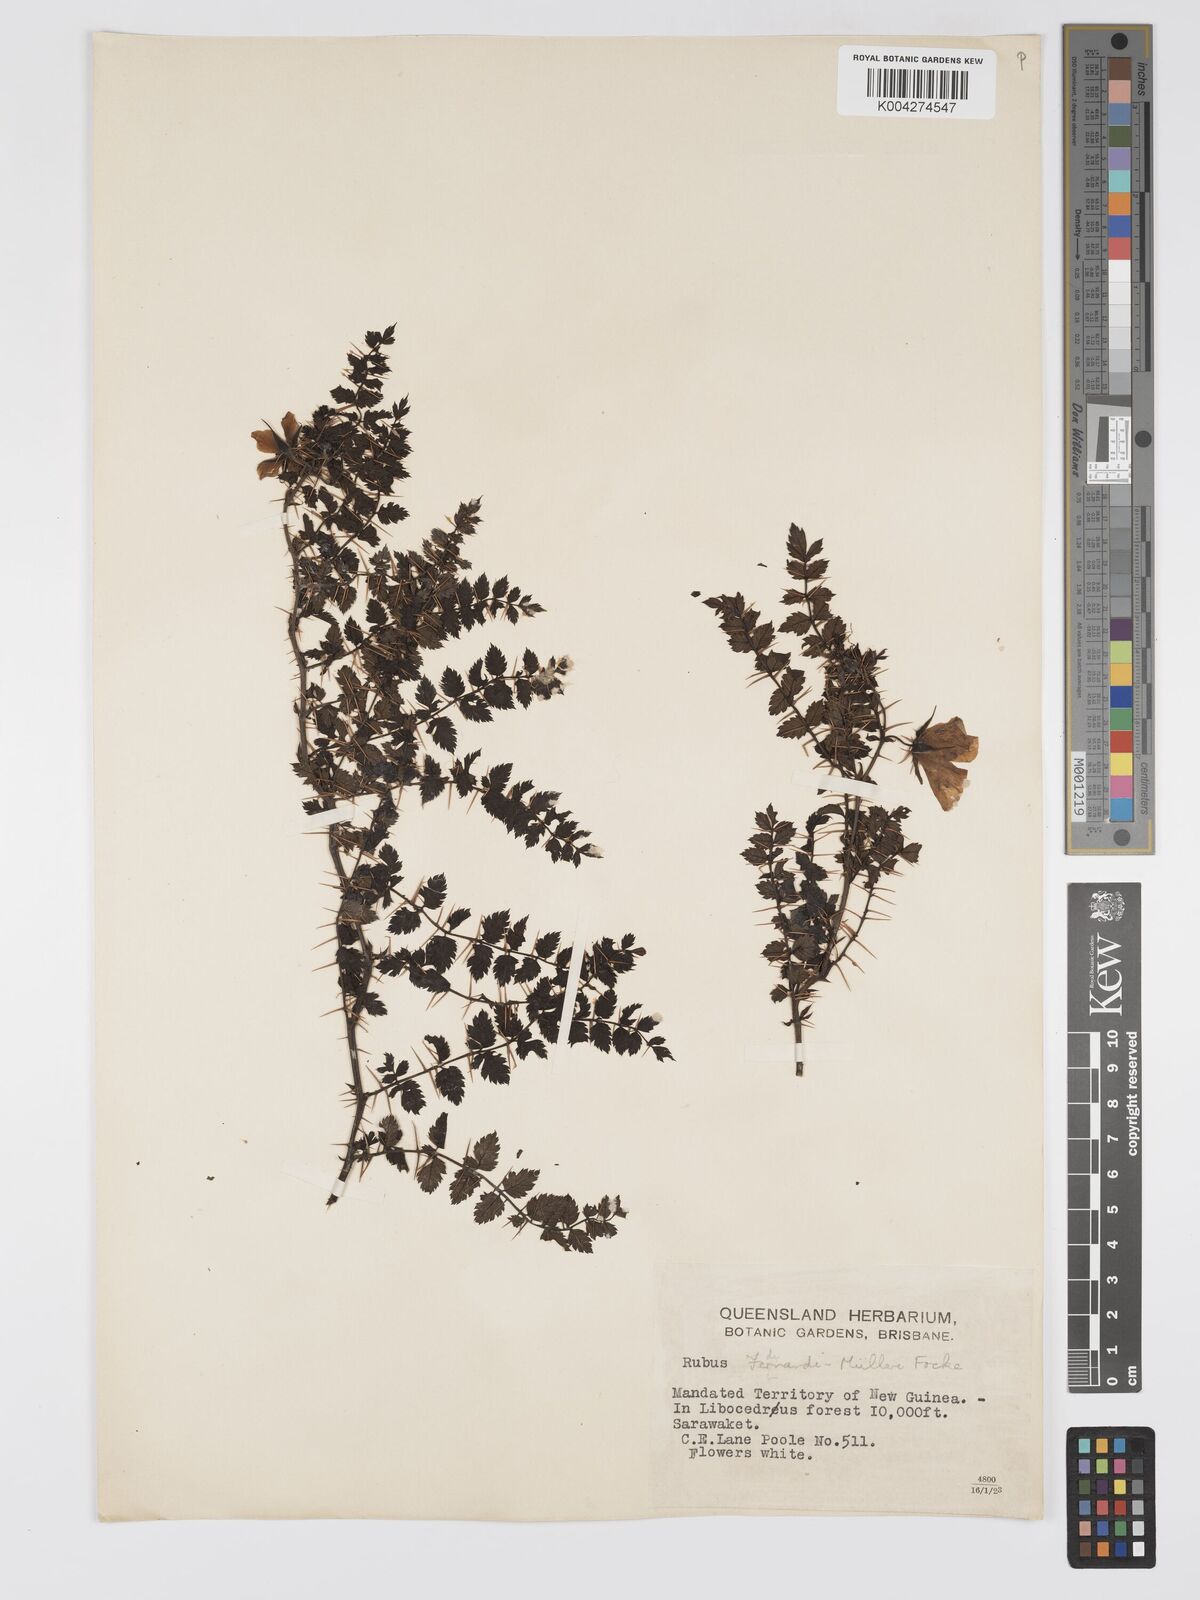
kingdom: Plantae
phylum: Tracheophyta
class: Magnoliopsida
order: Rosales
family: Rosaceae
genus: Rubus
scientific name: Rubus ferdinandimuelleri
